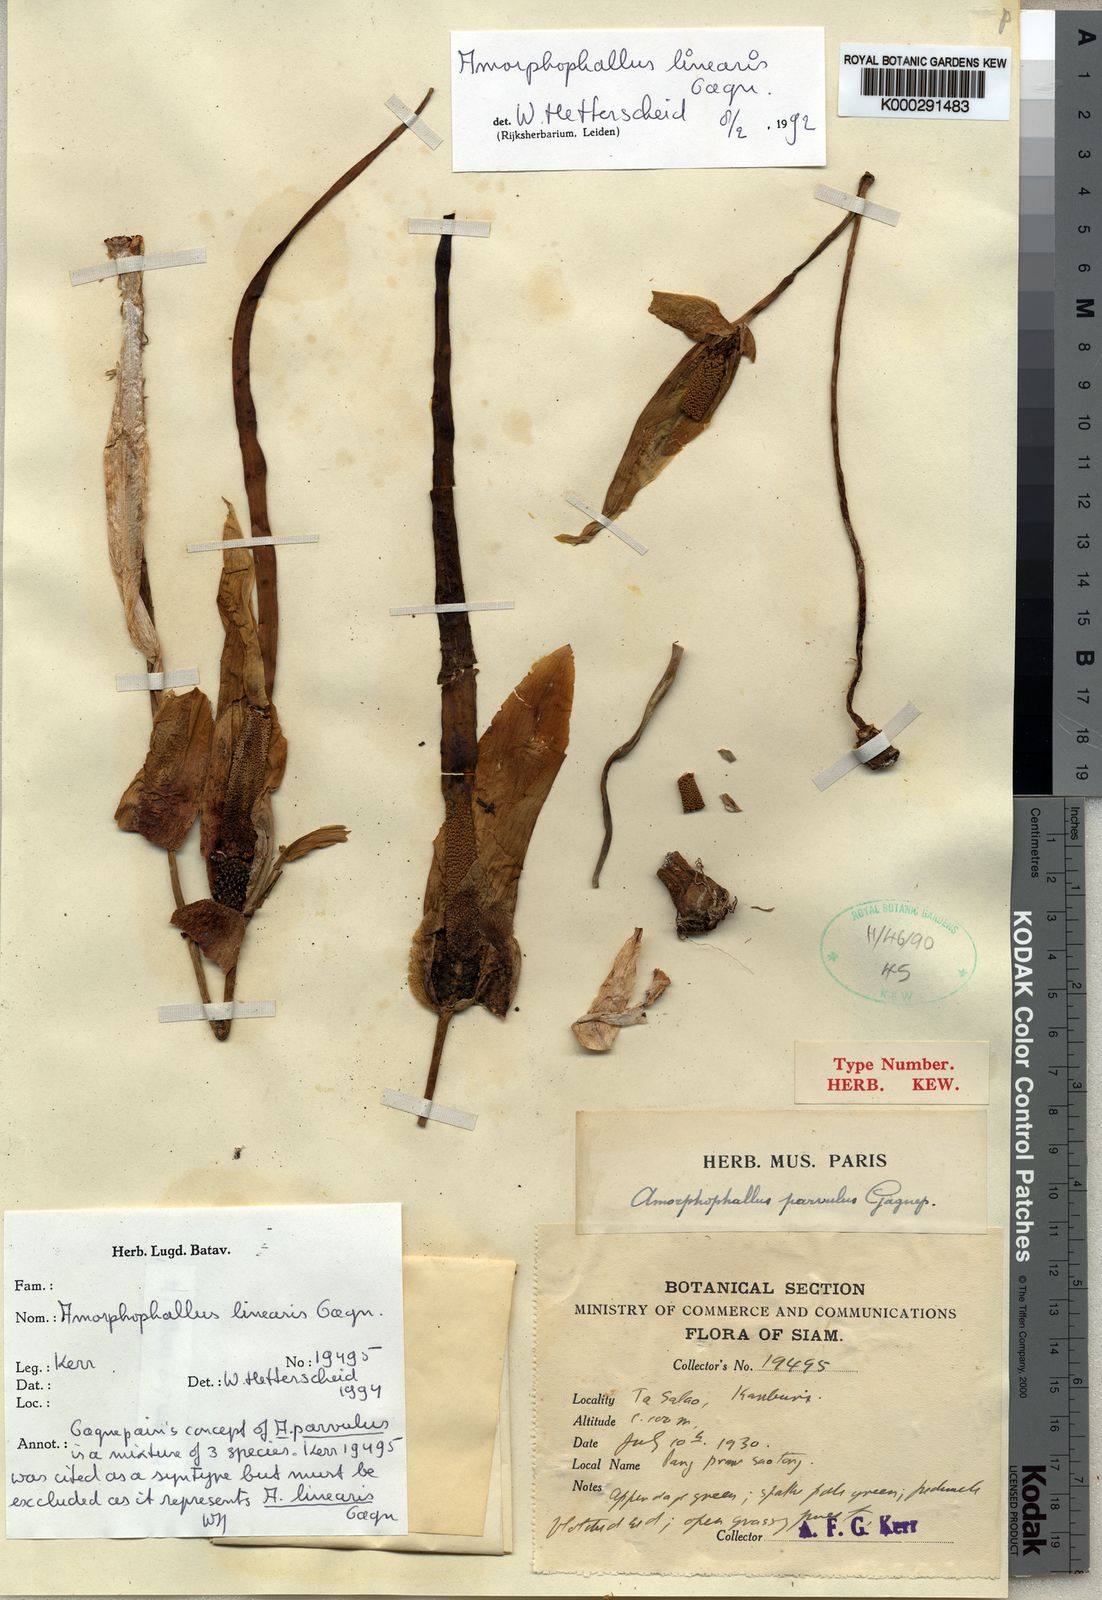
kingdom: Plantae
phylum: Tracheophyta
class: Liliopsida
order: Alismatales
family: Araceae
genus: Amorphophallus
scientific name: Amorphophallus linearis
